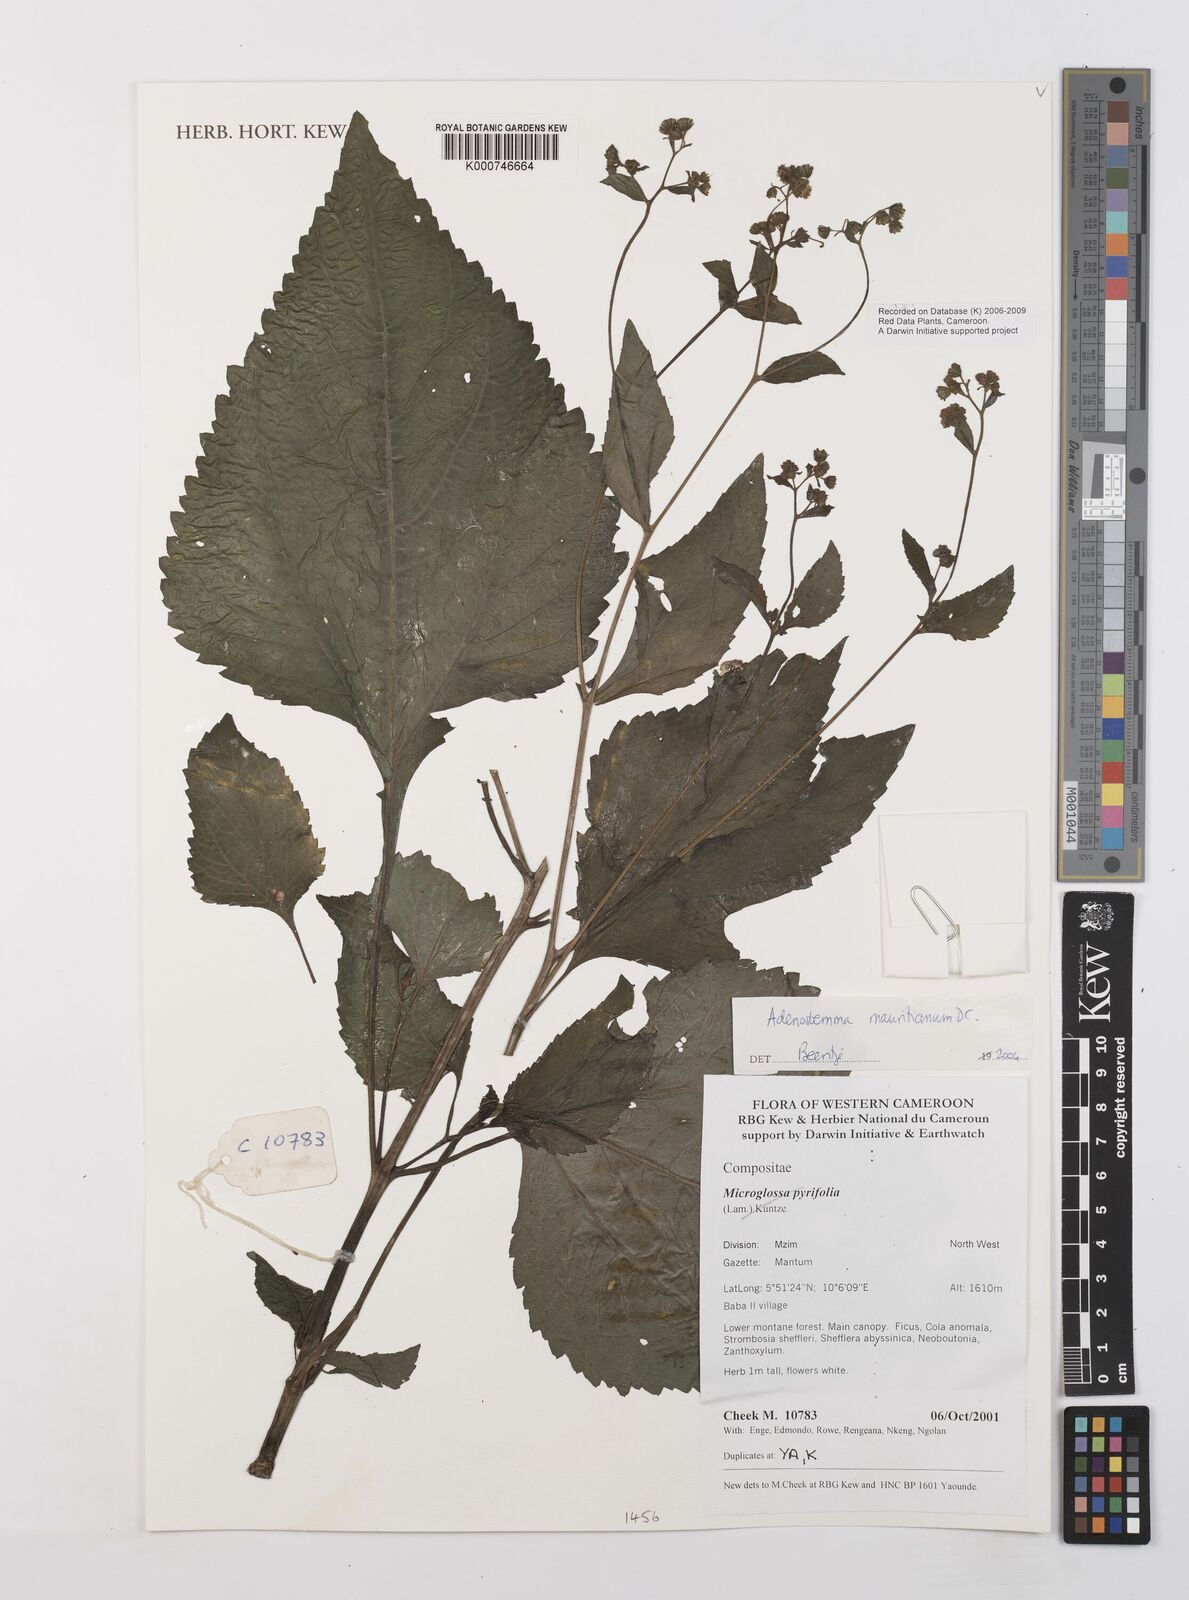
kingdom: Plantae
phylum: Tracheophyta
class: Magnoliopsida
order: Asterales
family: Asteraceae
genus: Adenostemma
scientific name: Adenostemma mauritianum
